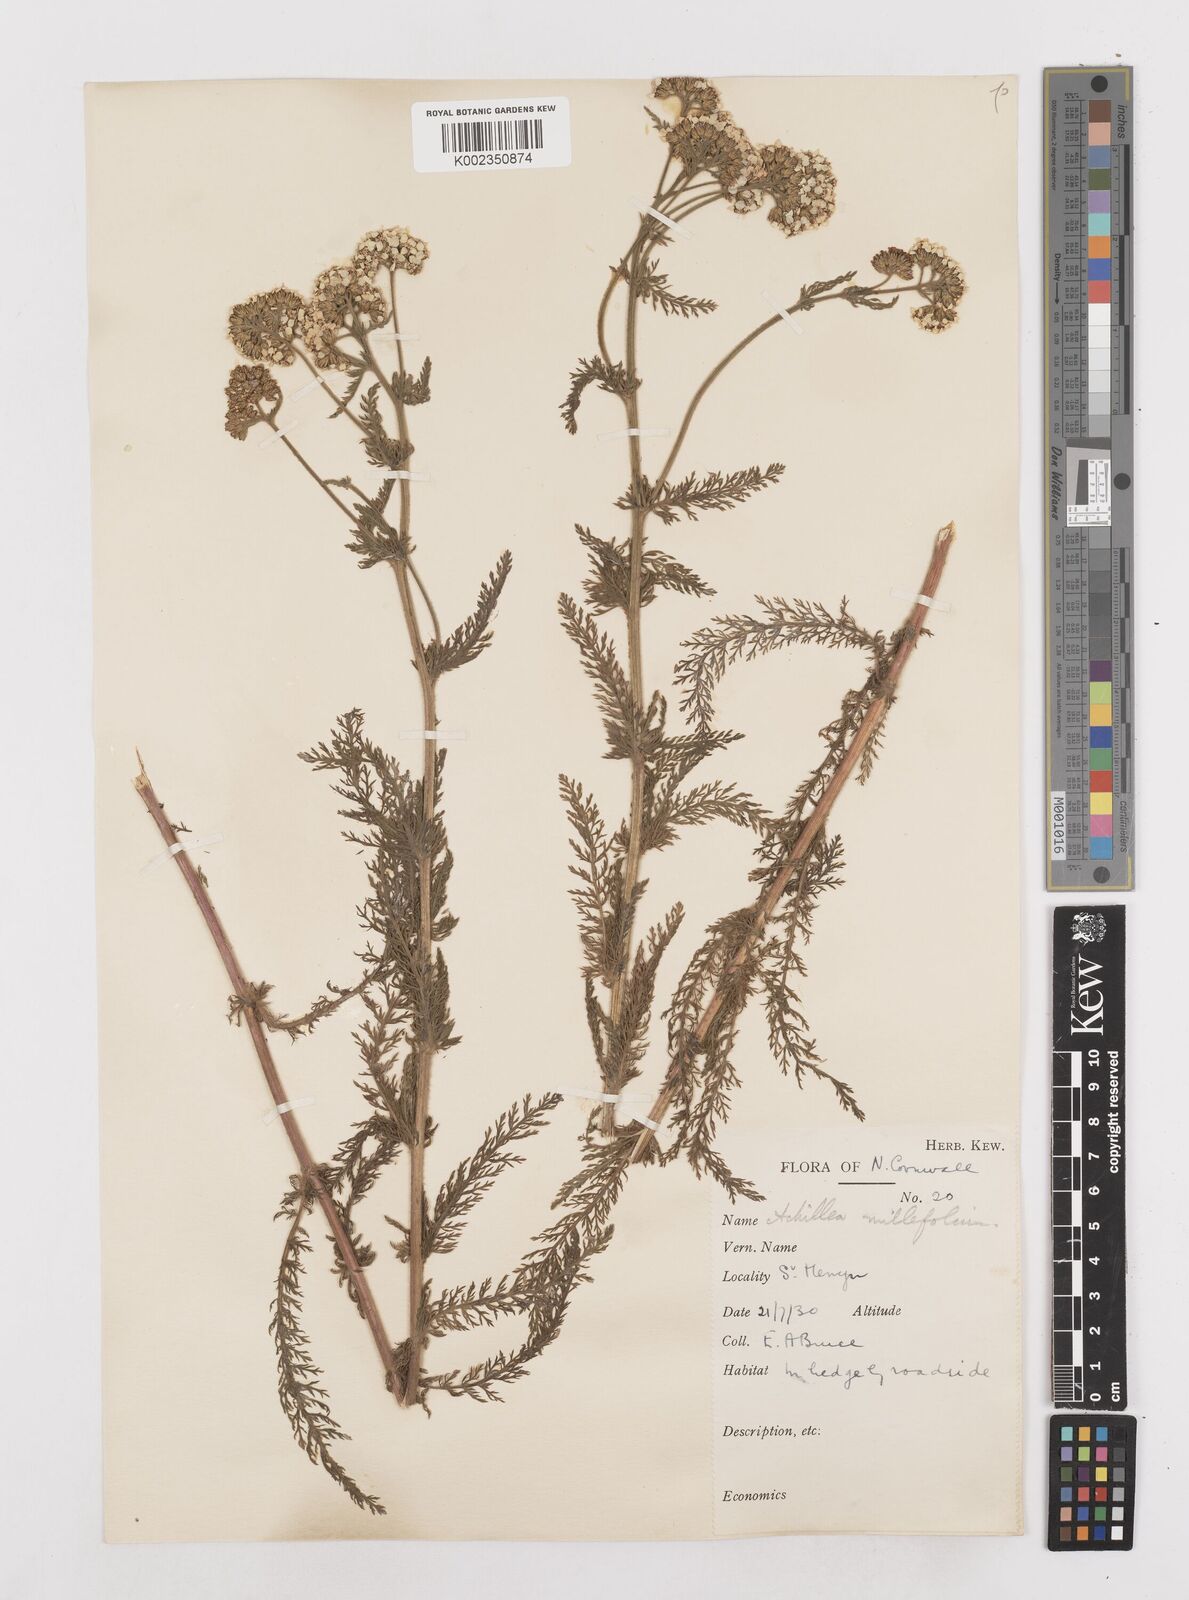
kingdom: Plantae
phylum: Tracheophyta
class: Magnoliopsida
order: Asterales
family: Asteraceae
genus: Achillea
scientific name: Achillea millefolium
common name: Yarrow
